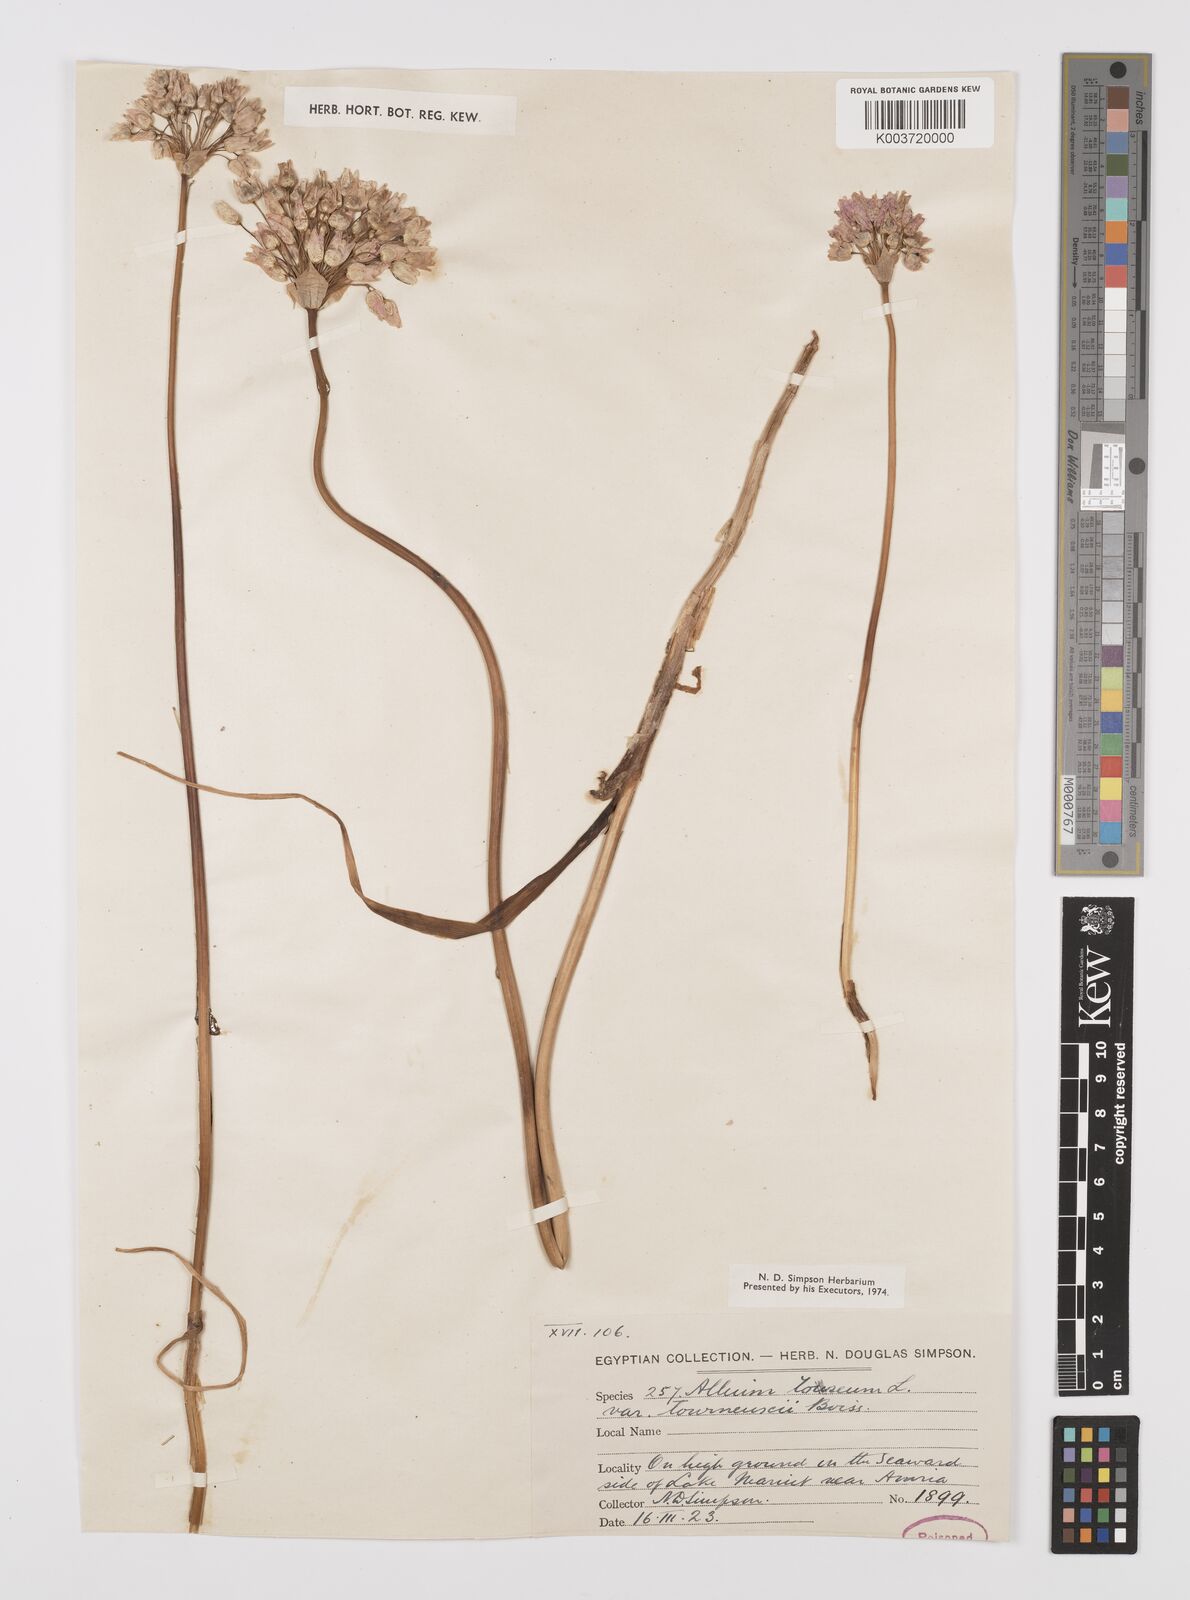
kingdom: Plantae
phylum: Tracheophyta
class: Liliopsida
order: Asparagales
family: Amaryllidaceae
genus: Allium
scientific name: Allium roseum
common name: Rosy garlic
